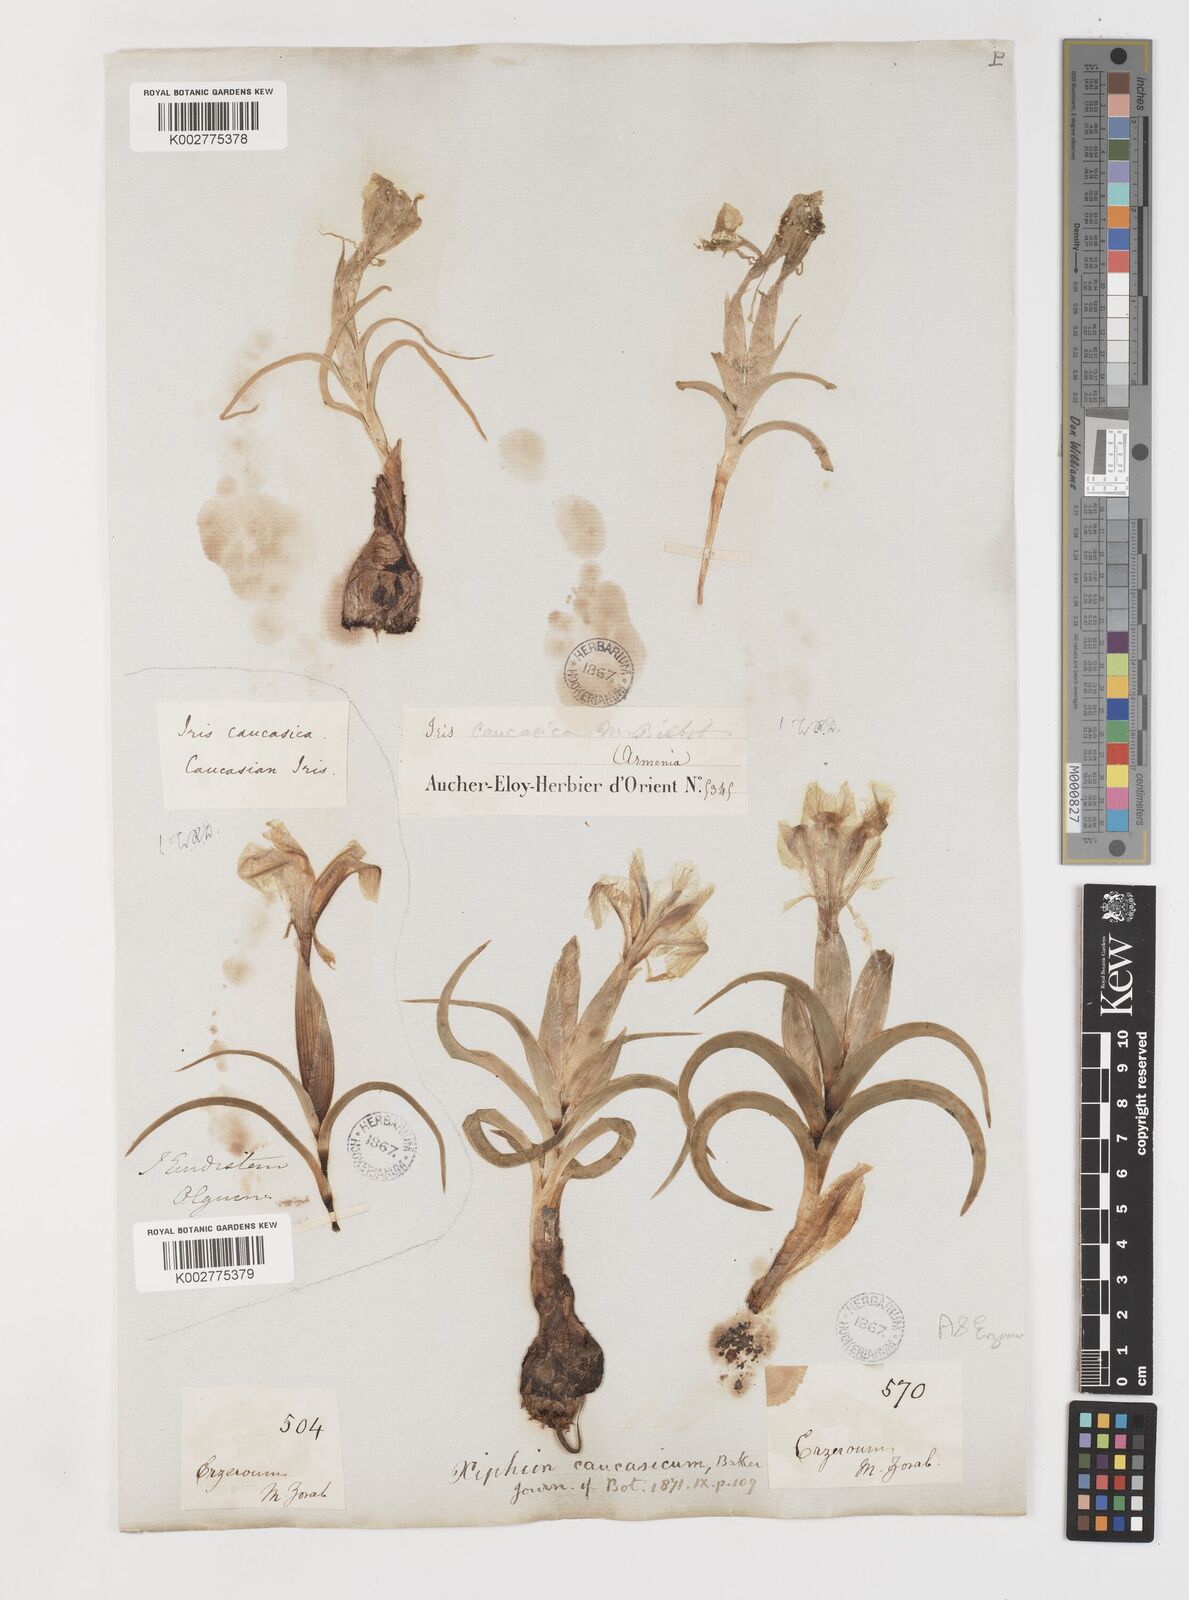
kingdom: Plantae
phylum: Tracheophyta
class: Liliopsida
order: Asparagales
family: Iridaceae
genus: Iris
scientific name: Iris caucasica
